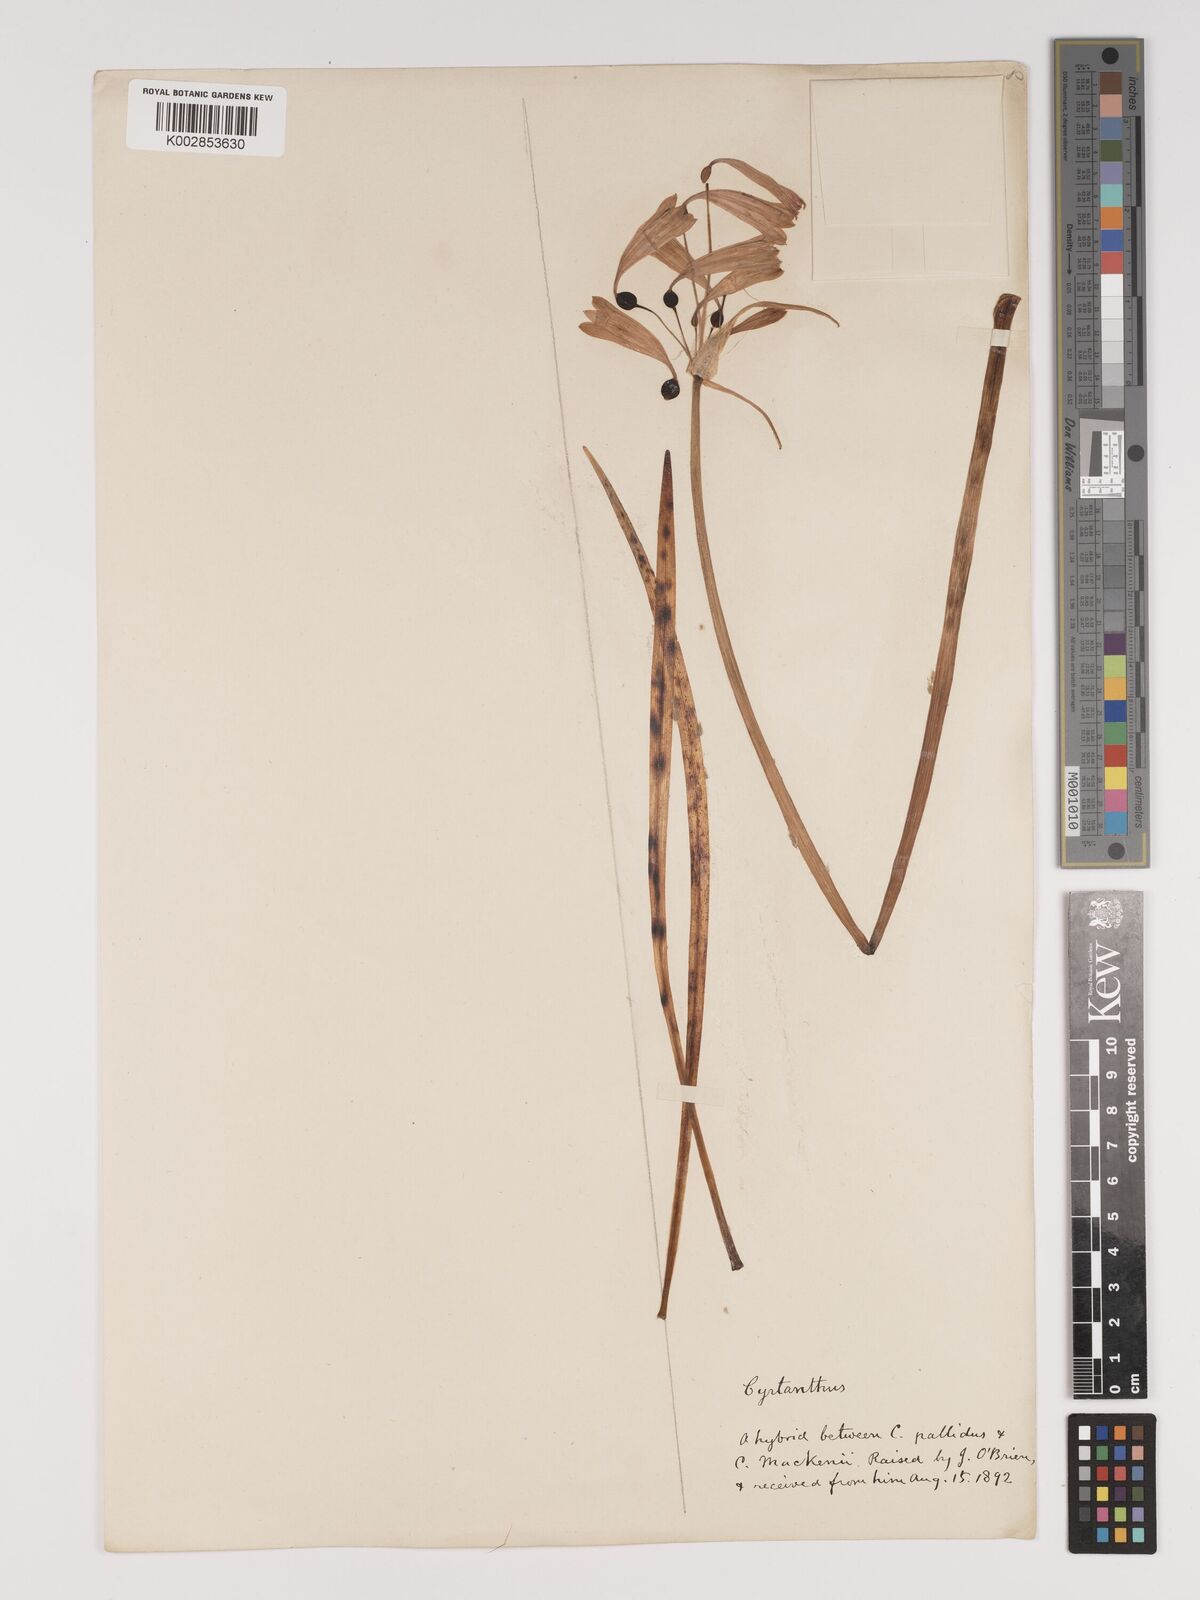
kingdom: Plantae
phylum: Tracheophyta
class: Liliopsida
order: Asparagales
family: Amaryllidaceae
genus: Cyrtanthus
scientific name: Cyrtanthus ventricosus
